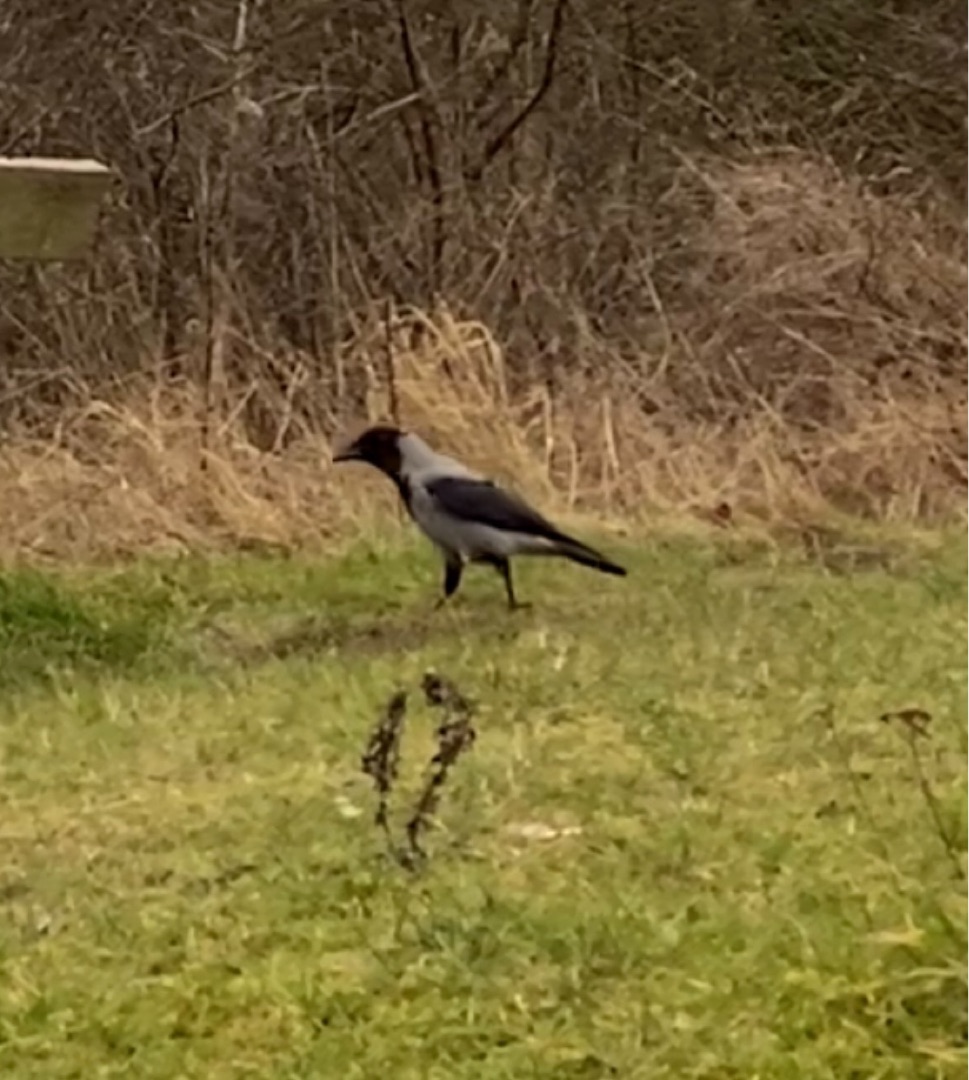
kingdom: Animalia
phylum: Chordata
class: Aves
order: Passeriformes
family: Corvidae
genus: Corvus
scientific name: Corvus cornix
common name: Gråkrage
